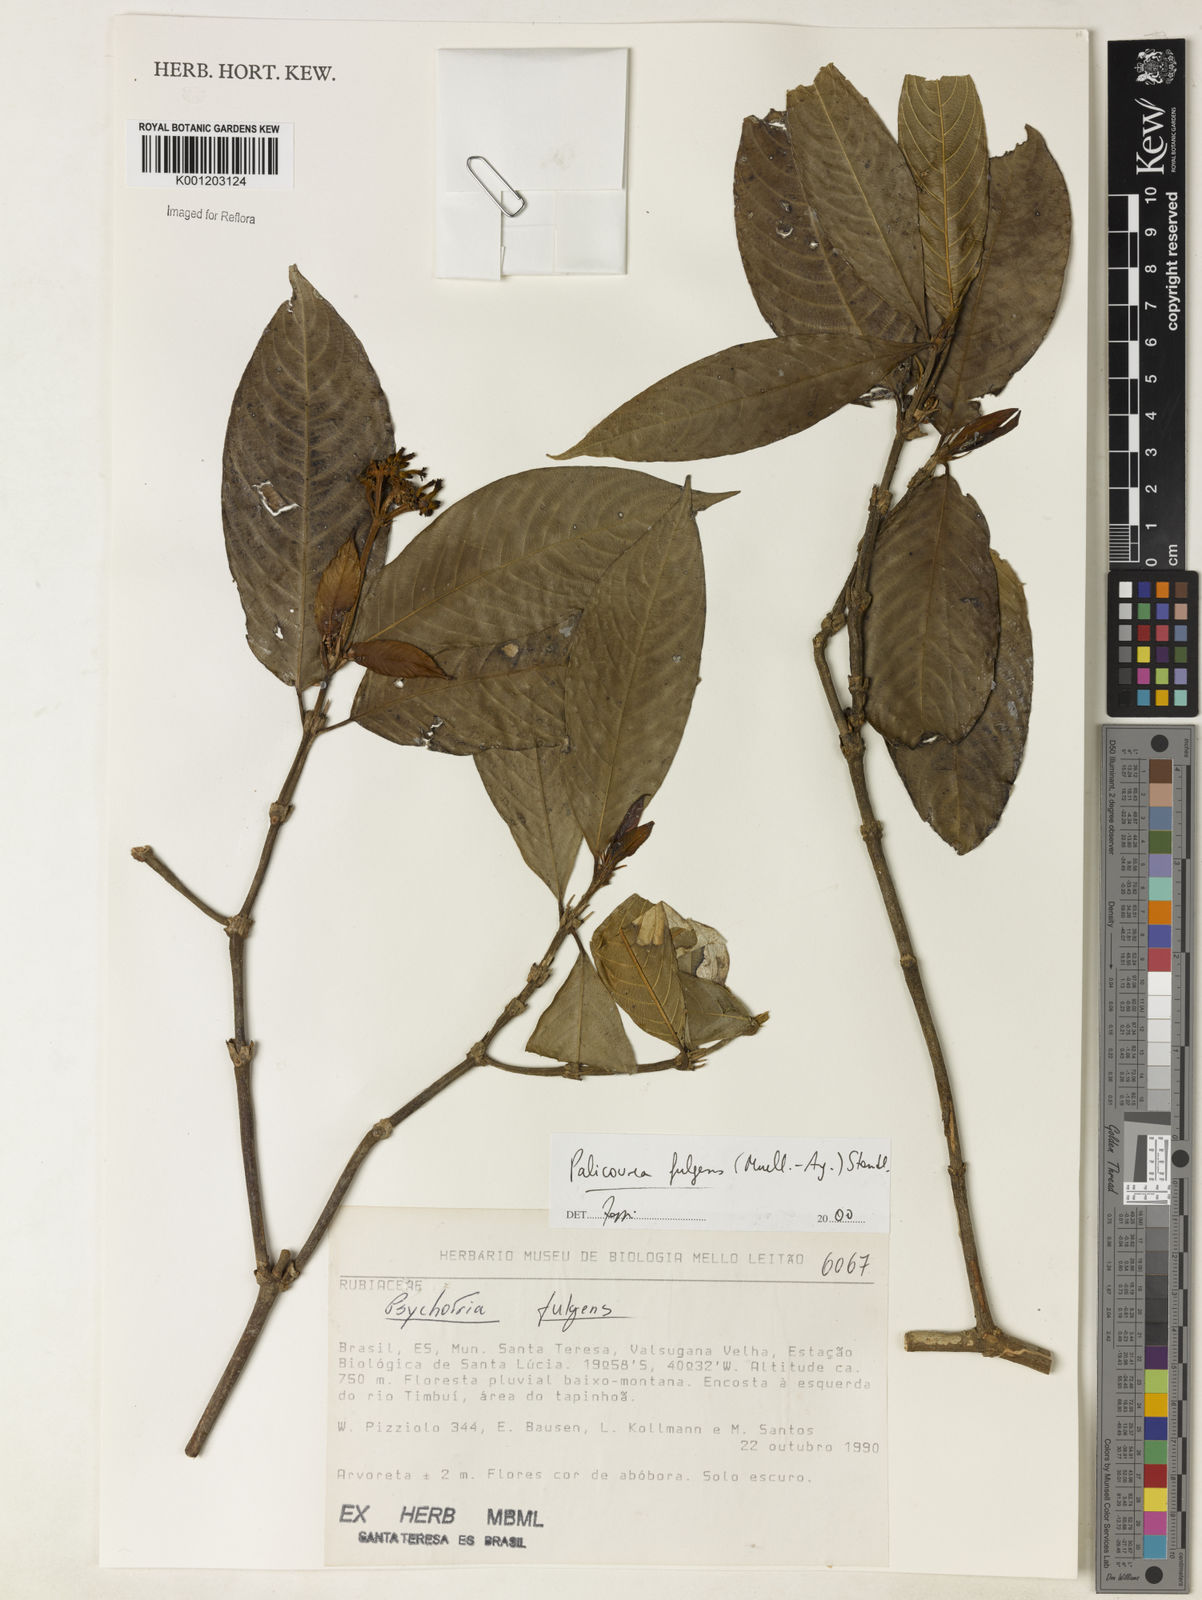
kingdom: Plantae
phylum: Tracheophyta
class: Magnoliopsida
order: Gentianales
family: Rubiaceae
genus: Palicourea
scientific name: Palicourea
